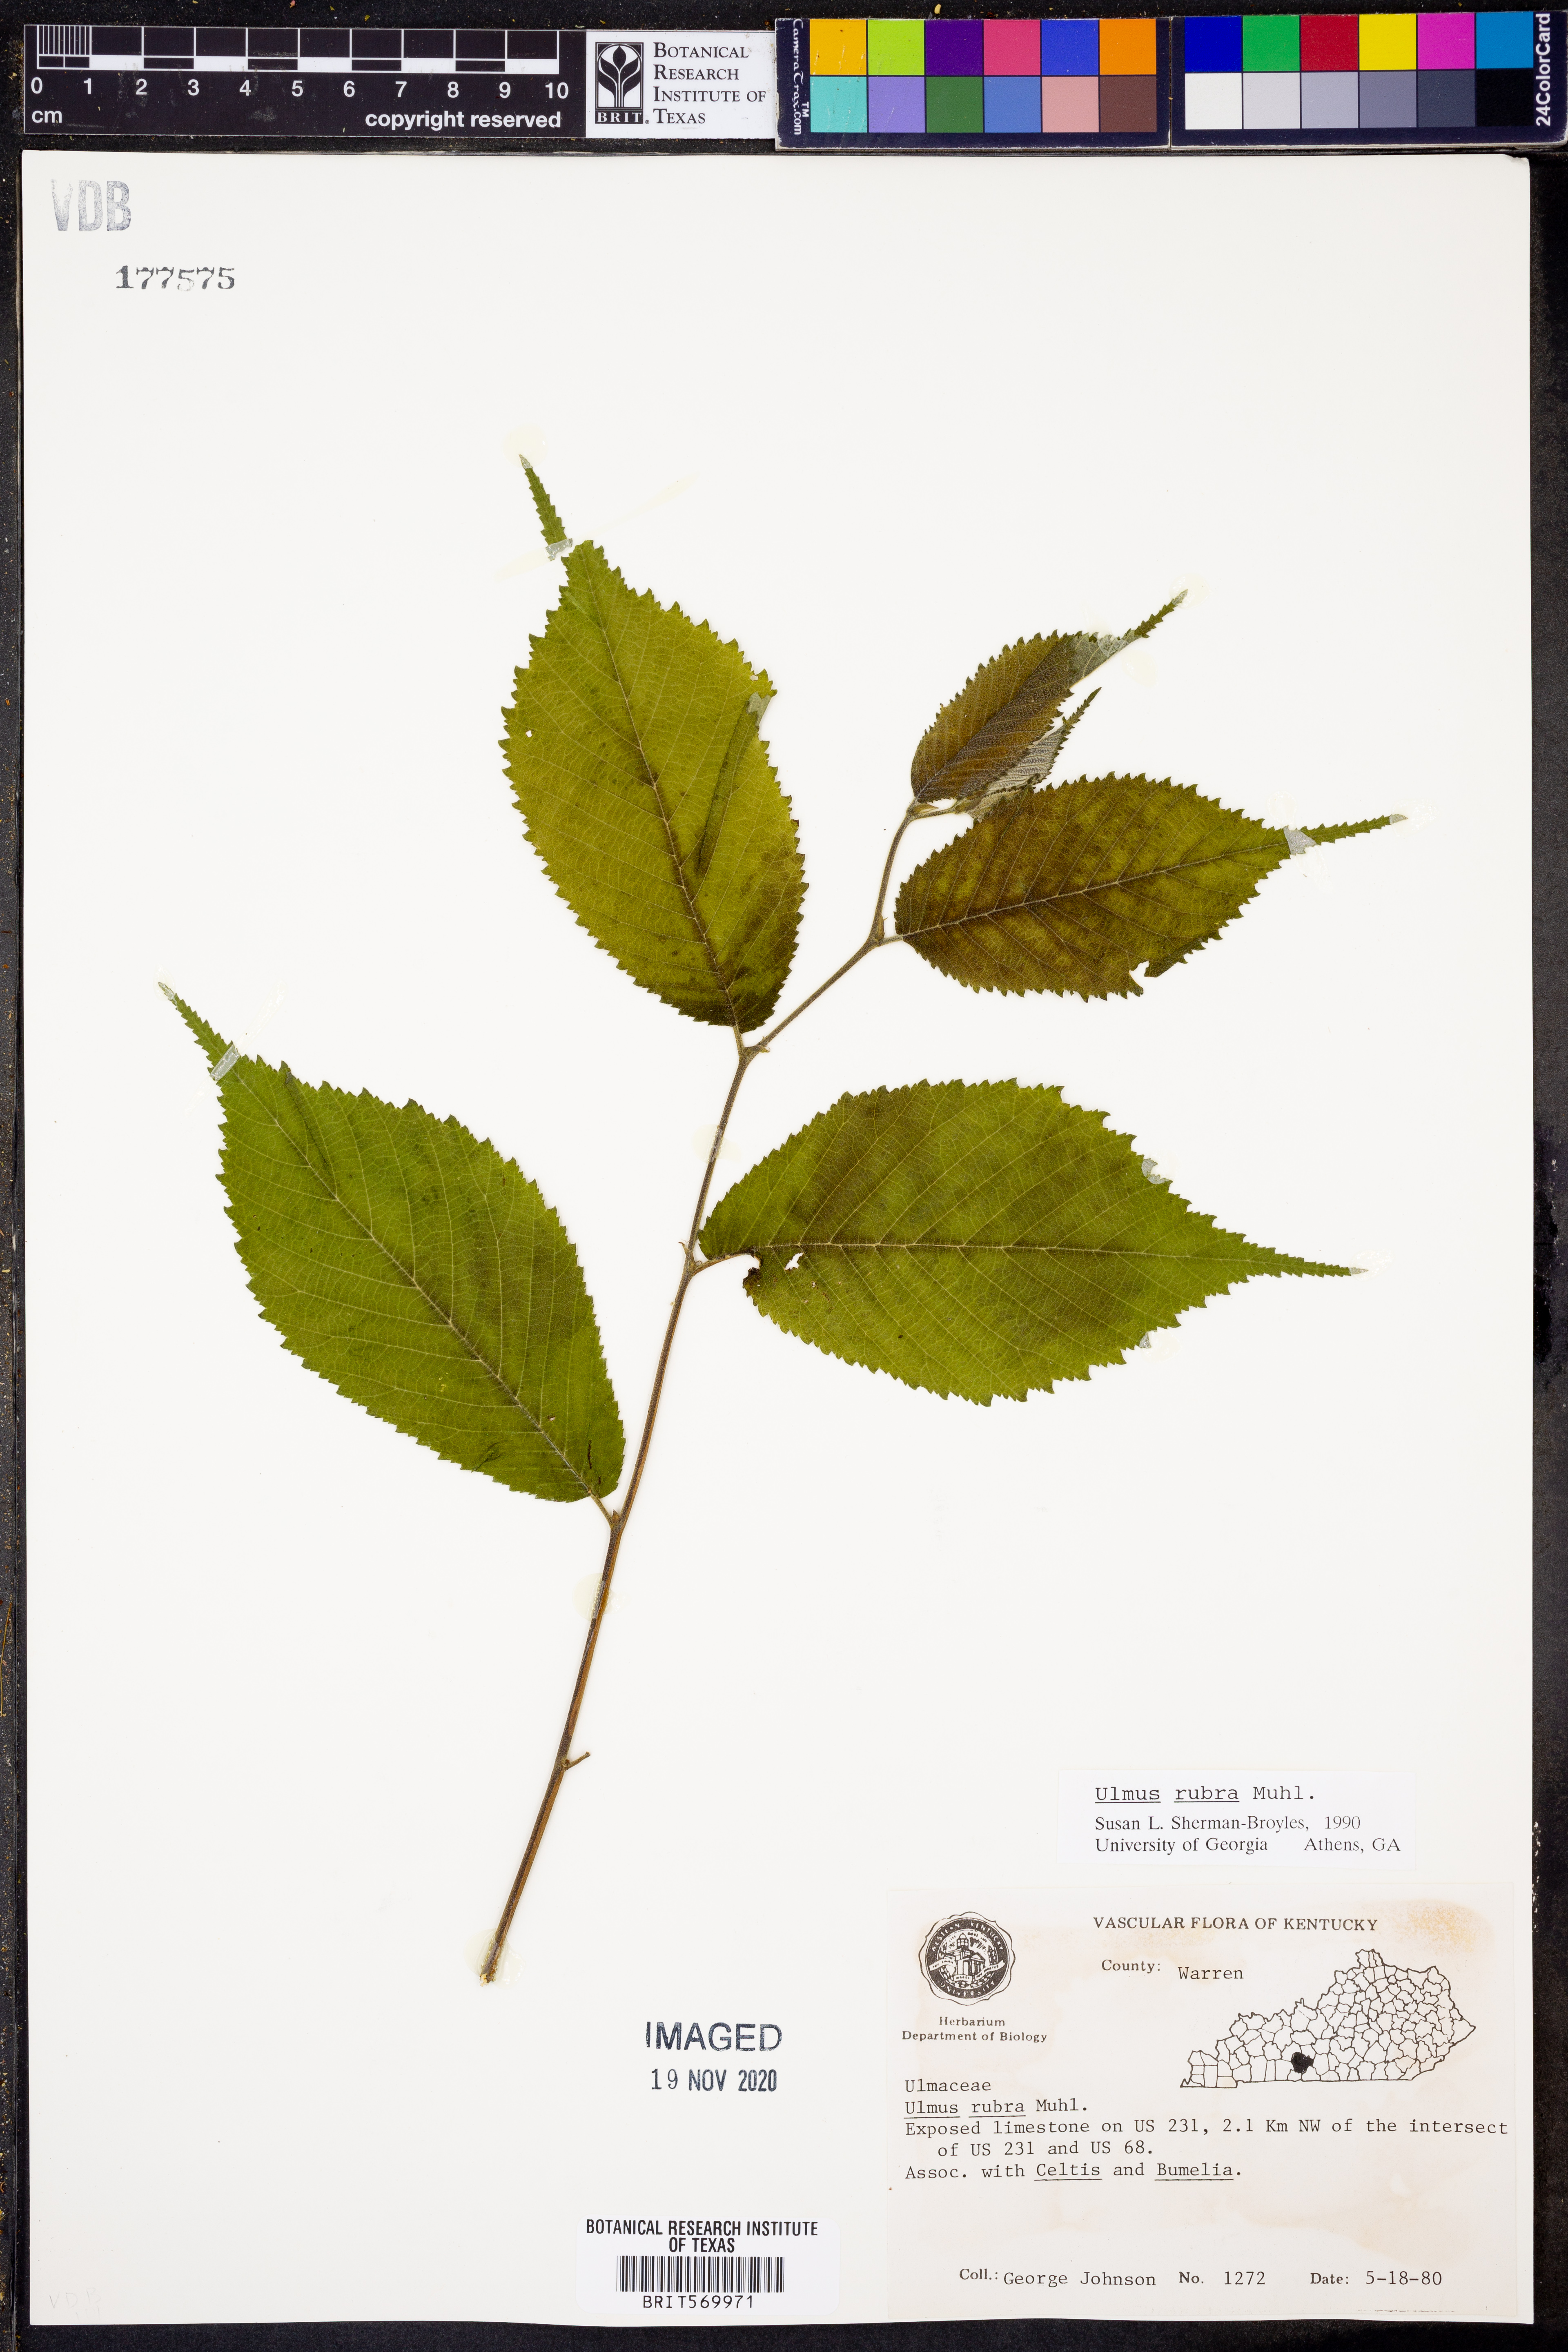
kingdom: Plantae
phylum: Tracheophyta
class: Magnoliopsida
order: Rosales
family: Ulmaceae
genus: Ulmus
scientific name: Ulmus rubra
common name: Slippery elm
